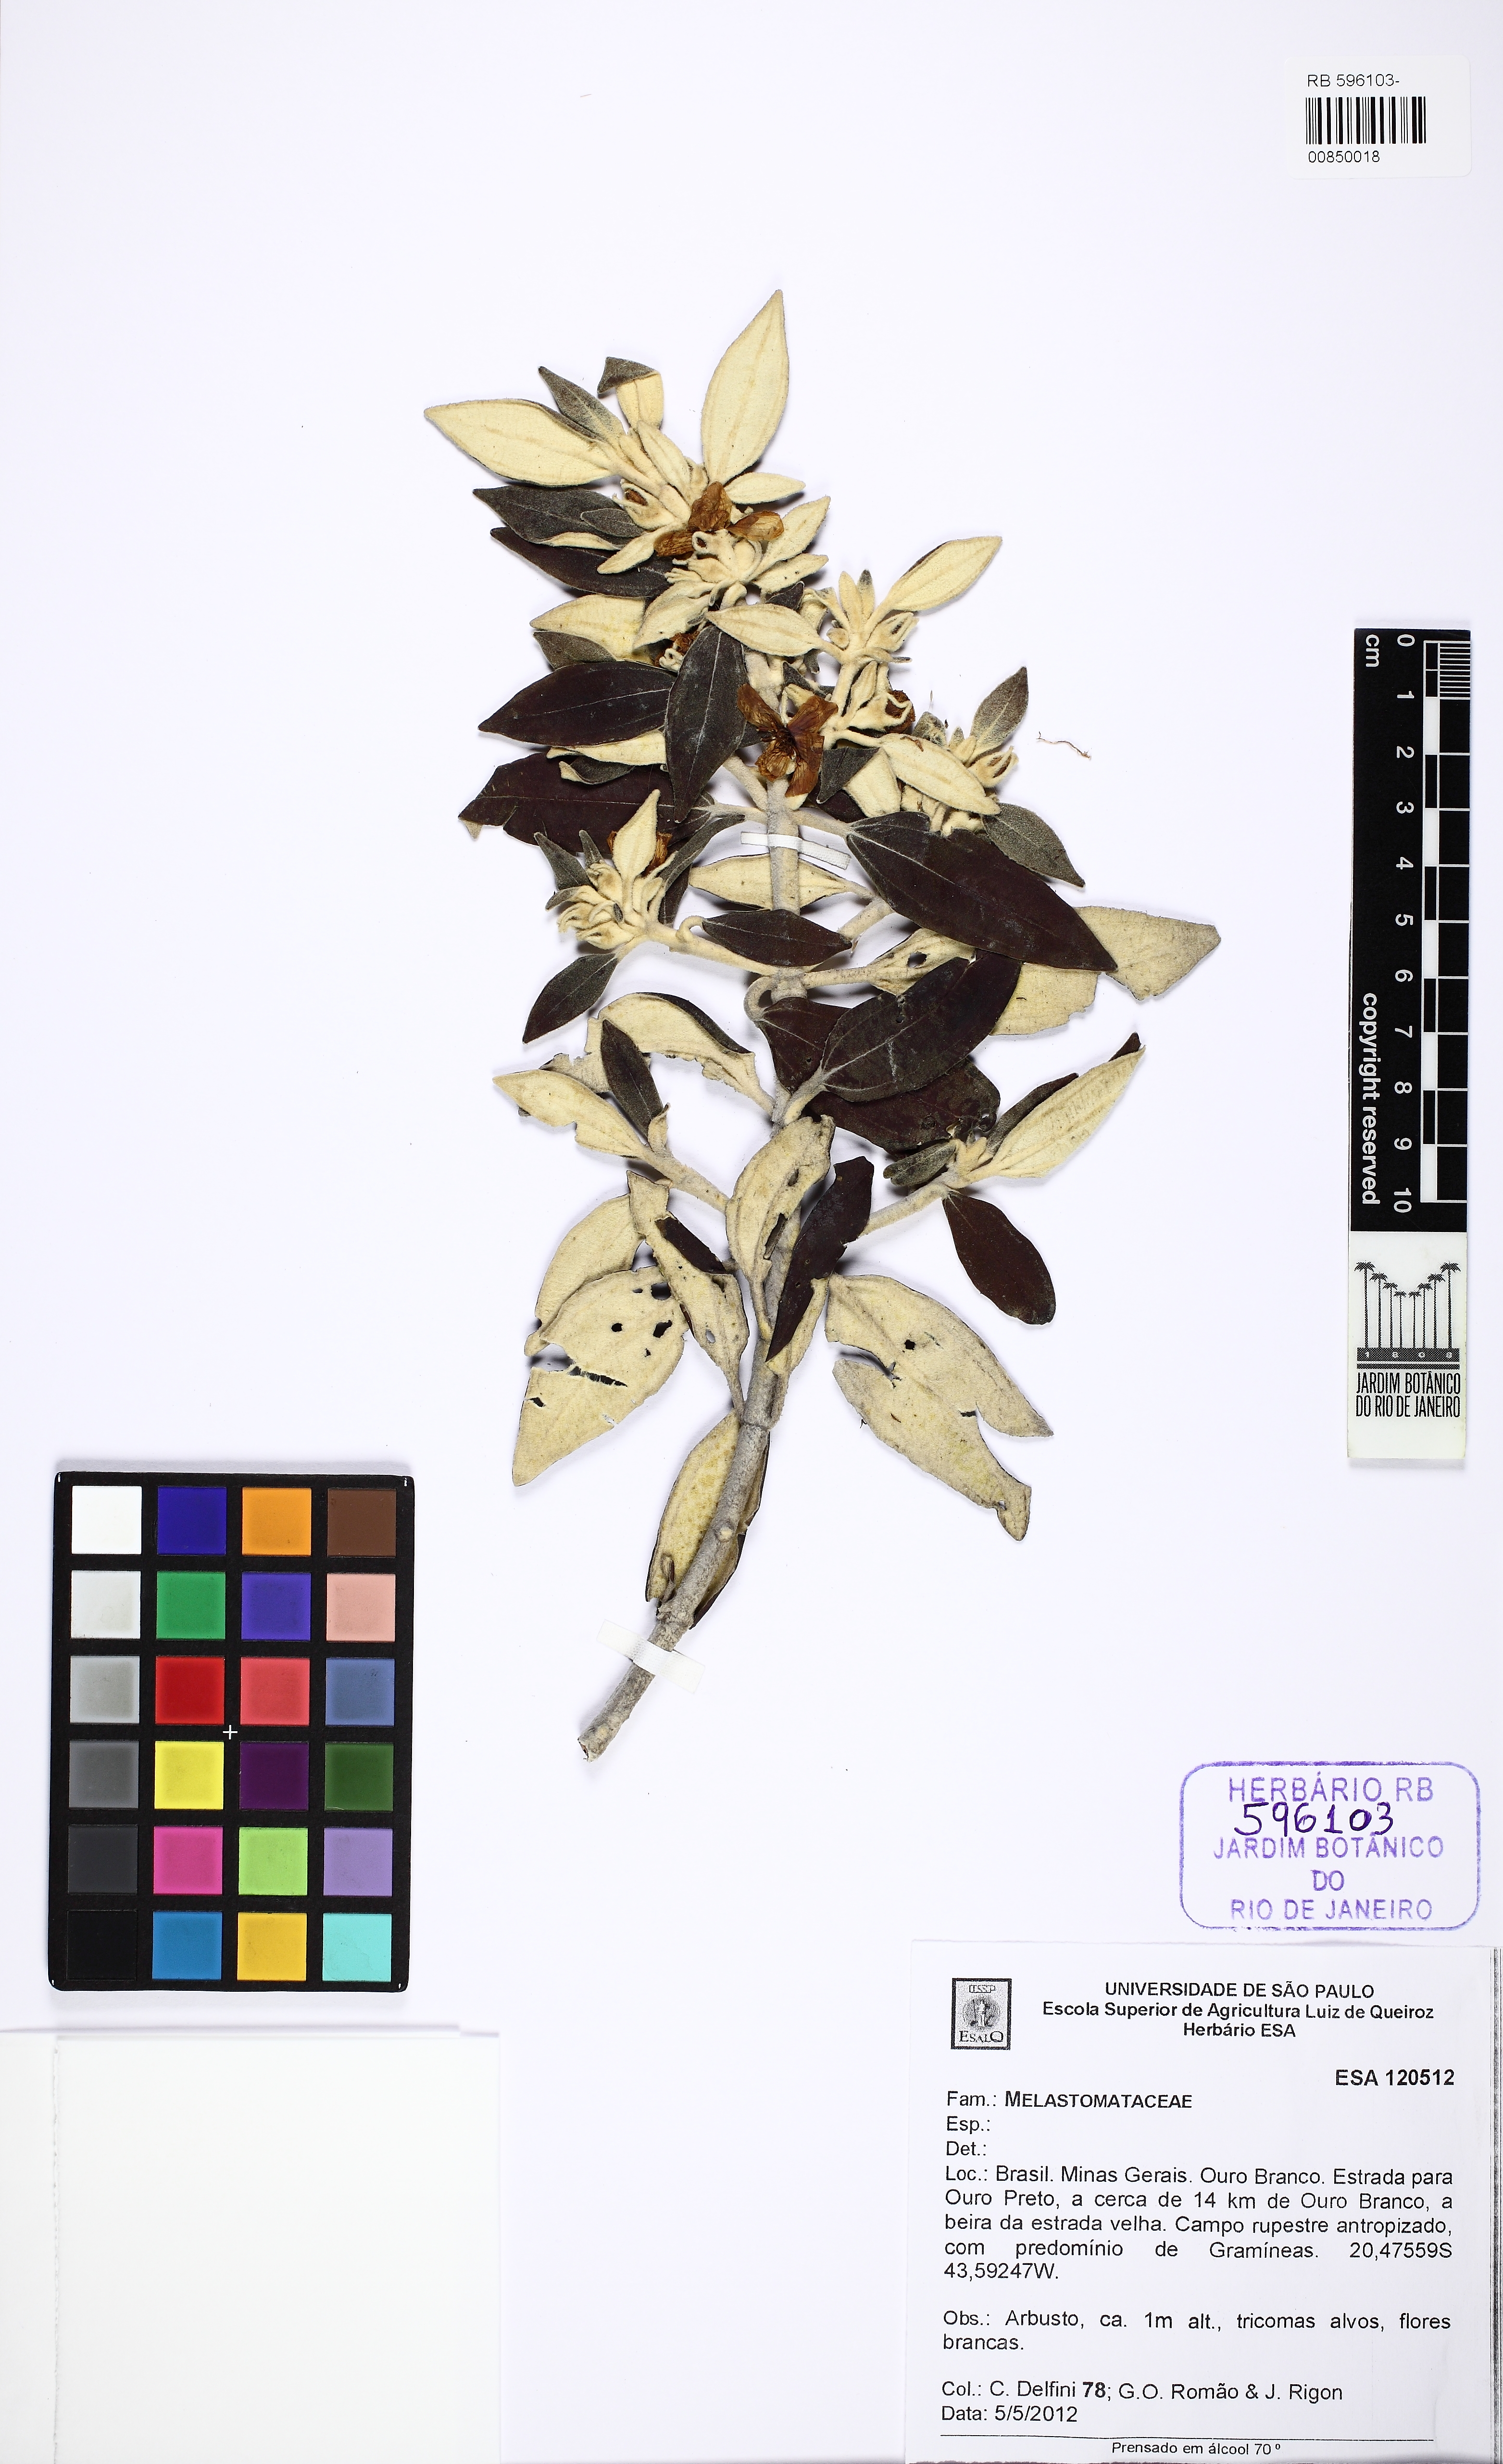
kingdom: Plantae
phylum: Tracheophyta
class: Magnoliopsida
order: Myrtales
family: Melastomataceae
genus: Microlicia
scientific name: Microlicia laniflora
